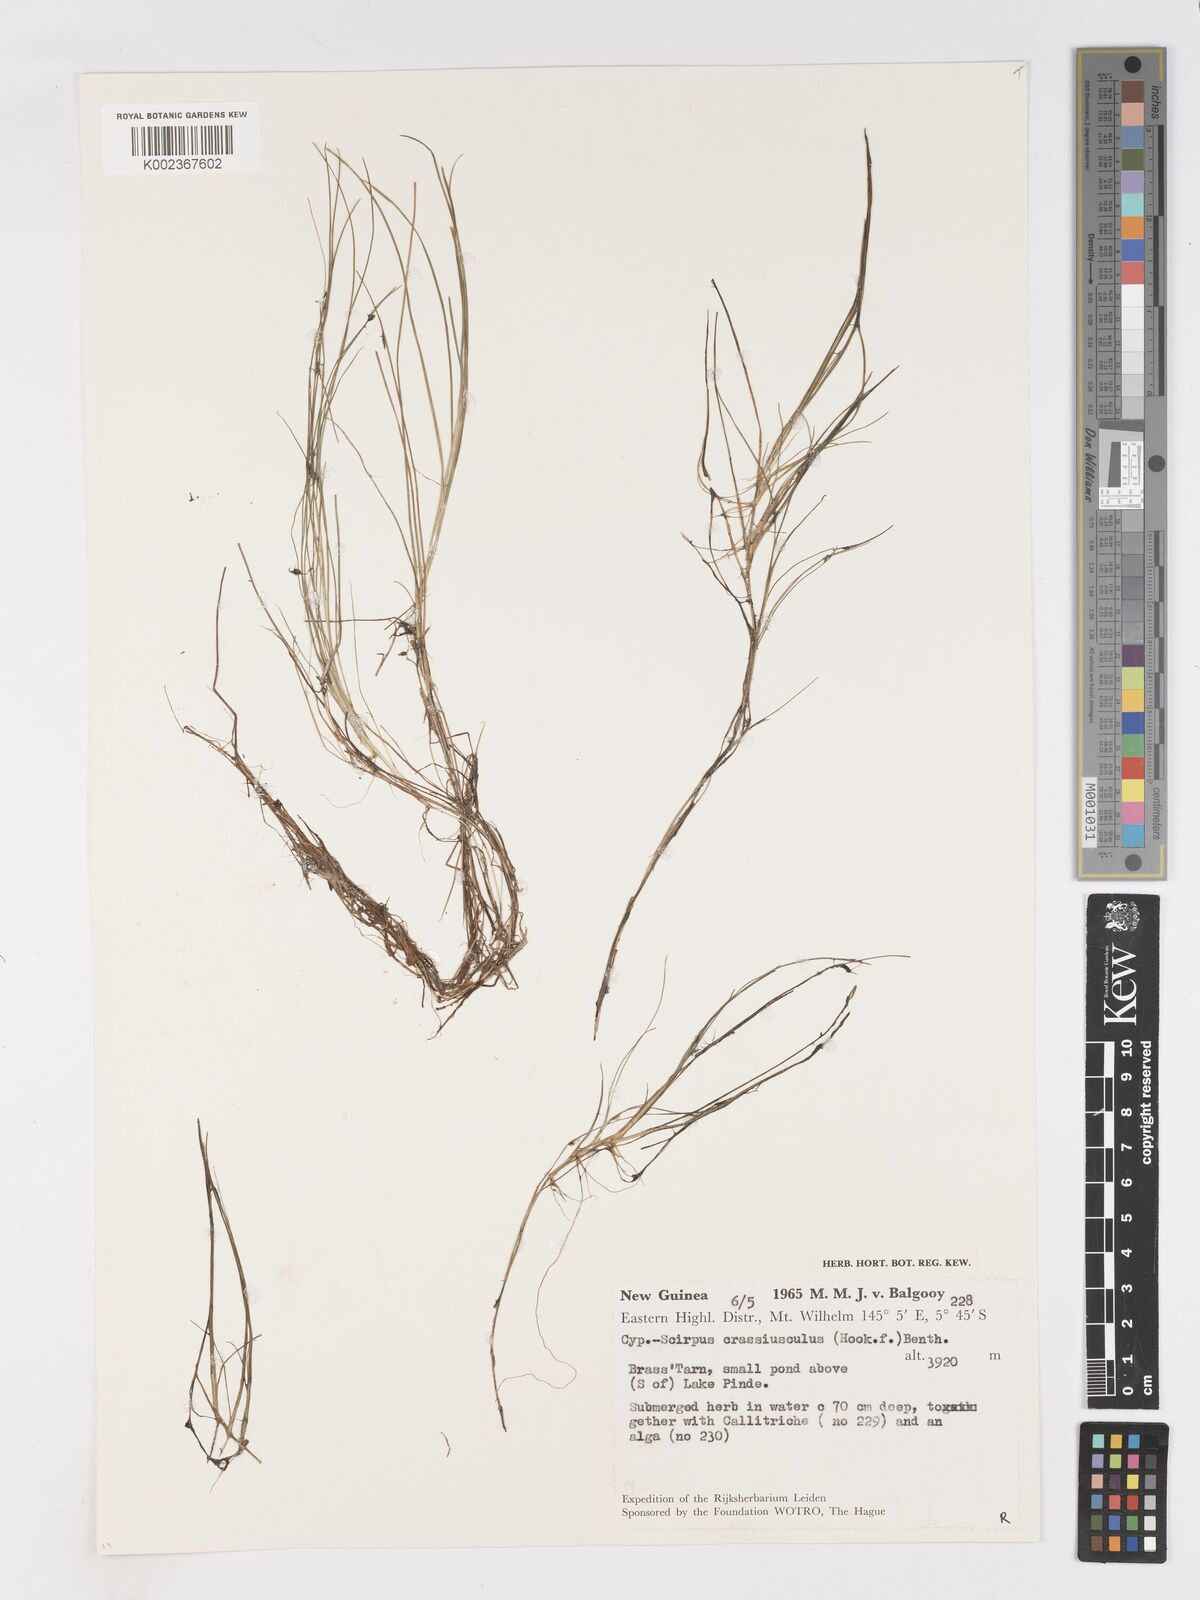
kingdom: Plantae
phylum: Tracheophyta
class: Liliopsida
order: Poales
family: Cyperaceae
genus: Isolepis
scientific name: Isolepis crassiuscula
